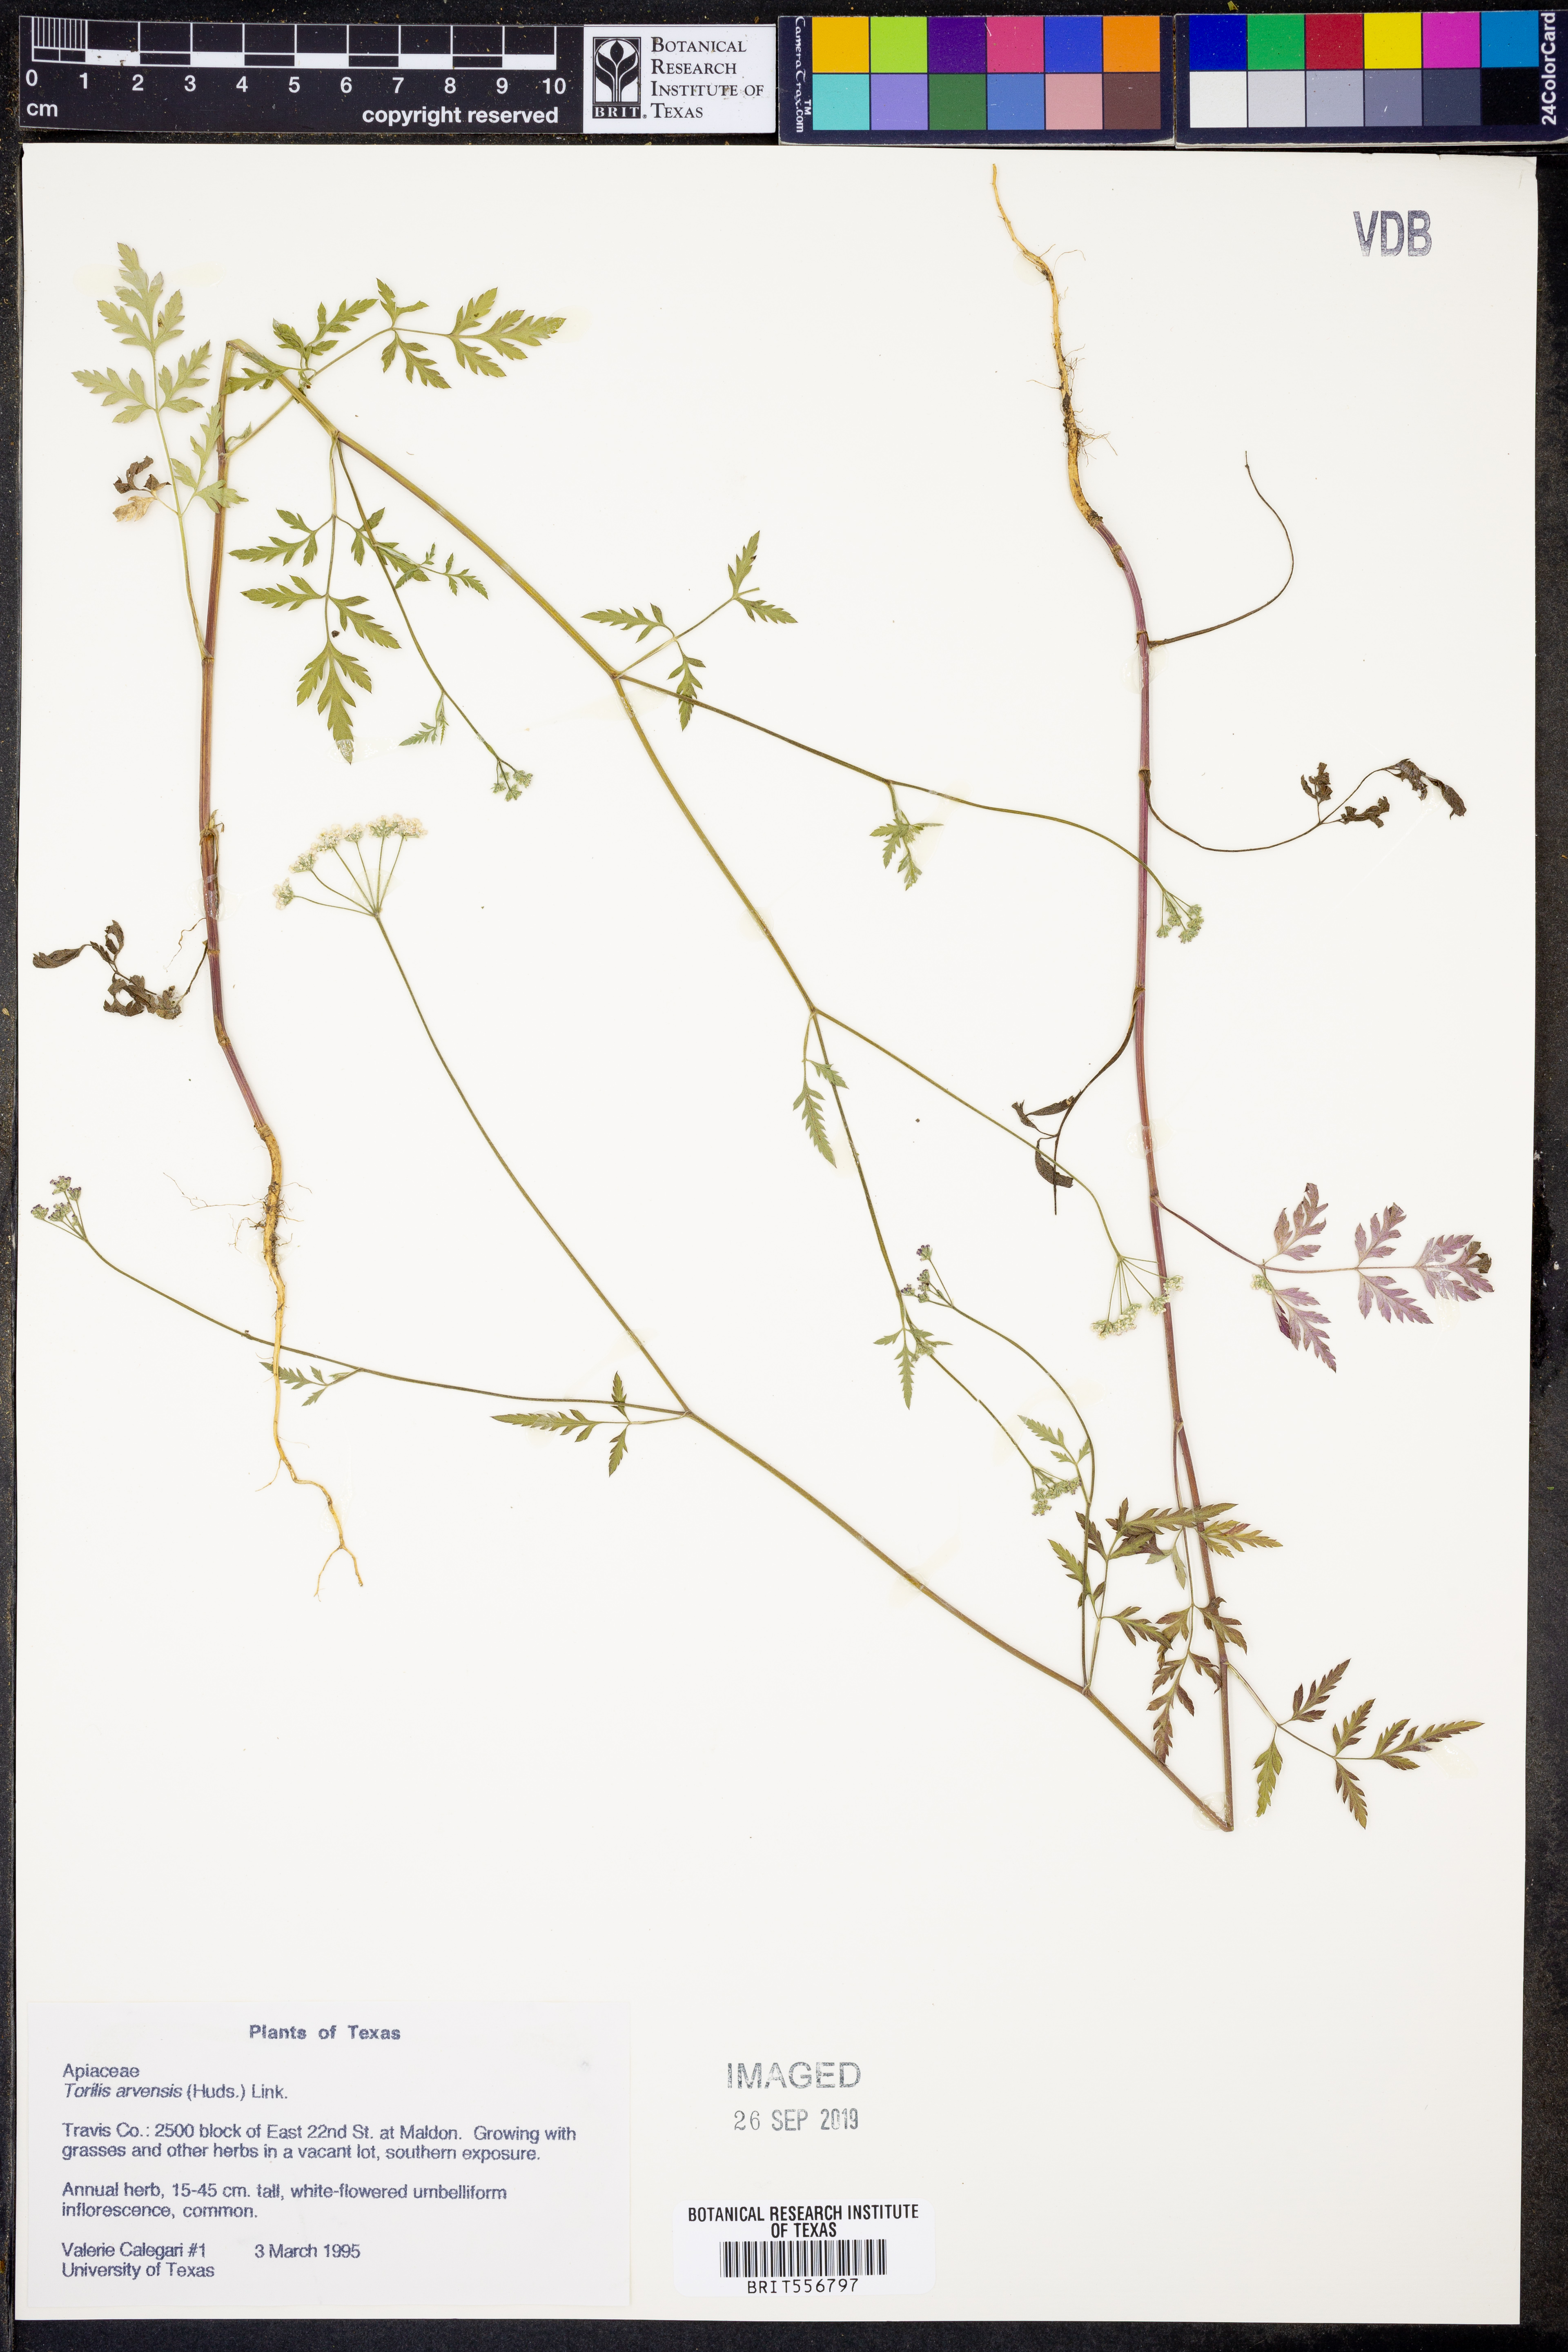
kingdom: Plantae
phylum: Tracheophyta
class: Magnoliopsida
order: Apiales
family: Apiaceae
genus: Torilis
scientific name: Torilis arvensis
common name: Spreading hedge-parsley
